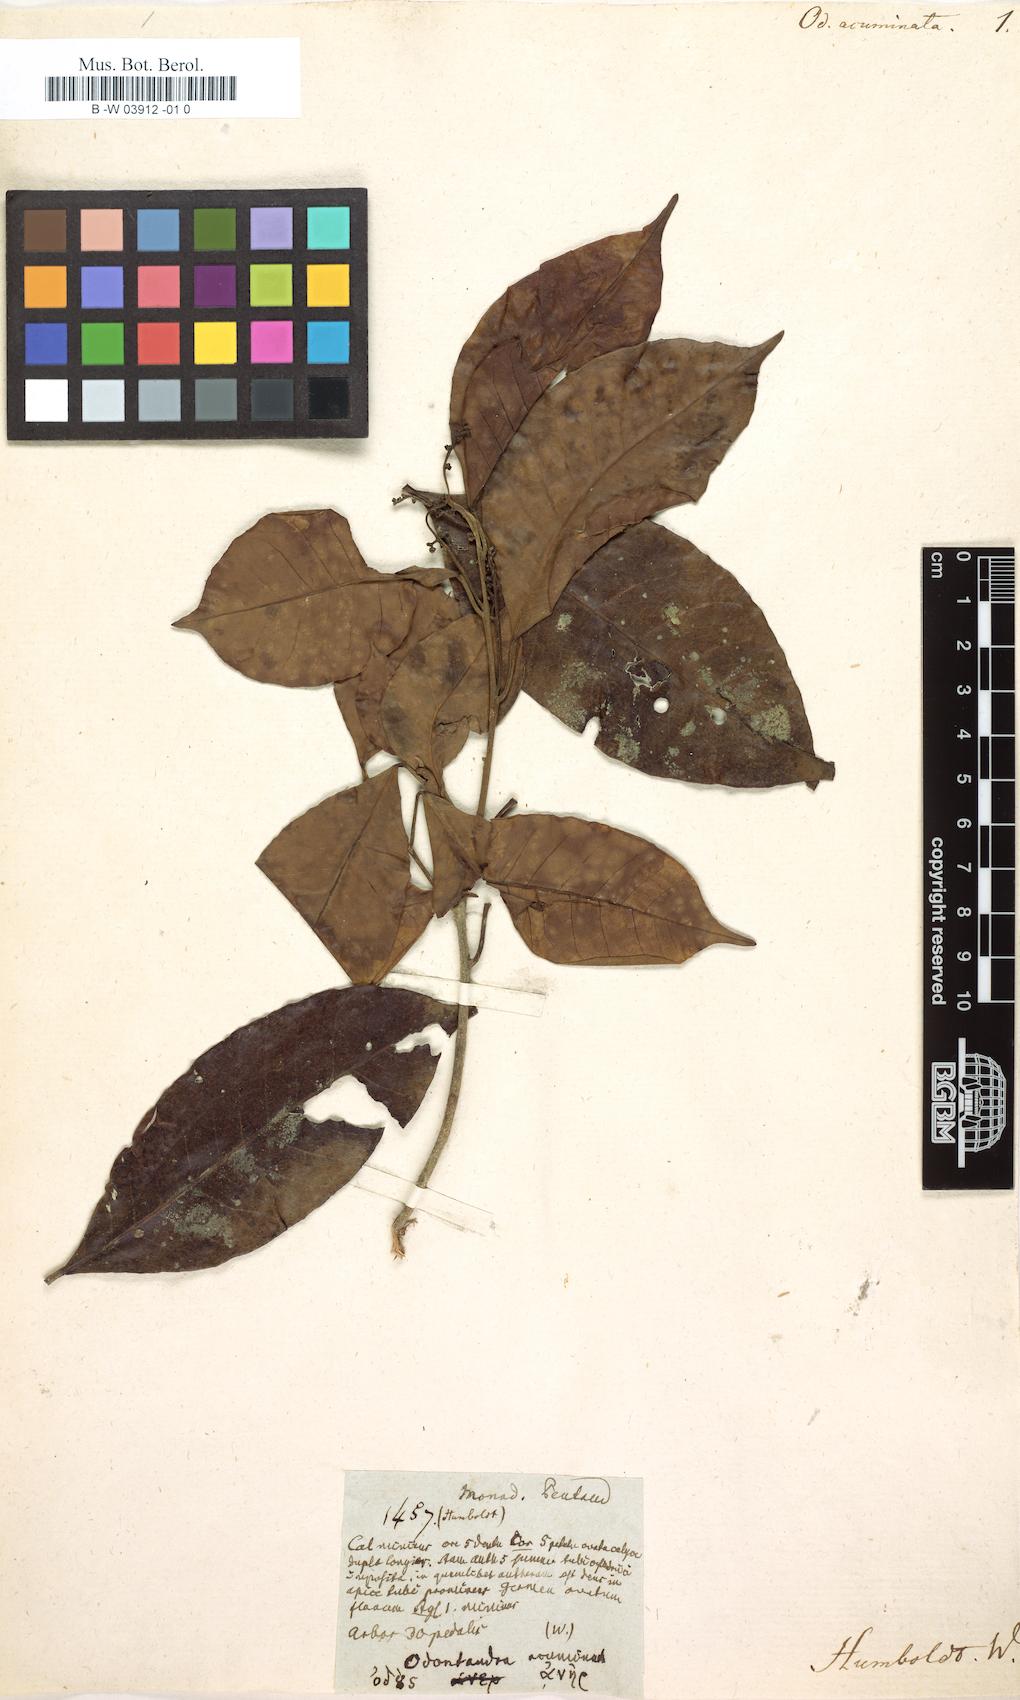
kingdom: Plantae
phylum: Tracheophyta
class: Magnoliopsida
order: Sapindales
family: Meliaceae
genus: Trichilia
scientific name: Trichilia acuminata
